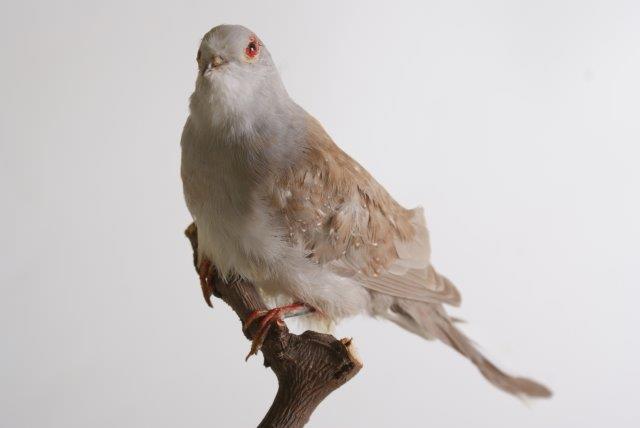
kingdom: Animalia
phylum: Chordata
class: Aves
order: Columbiformes
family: Columbidae
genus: Geopelia
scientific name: Geopelia cuneata
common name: Diamond dove
